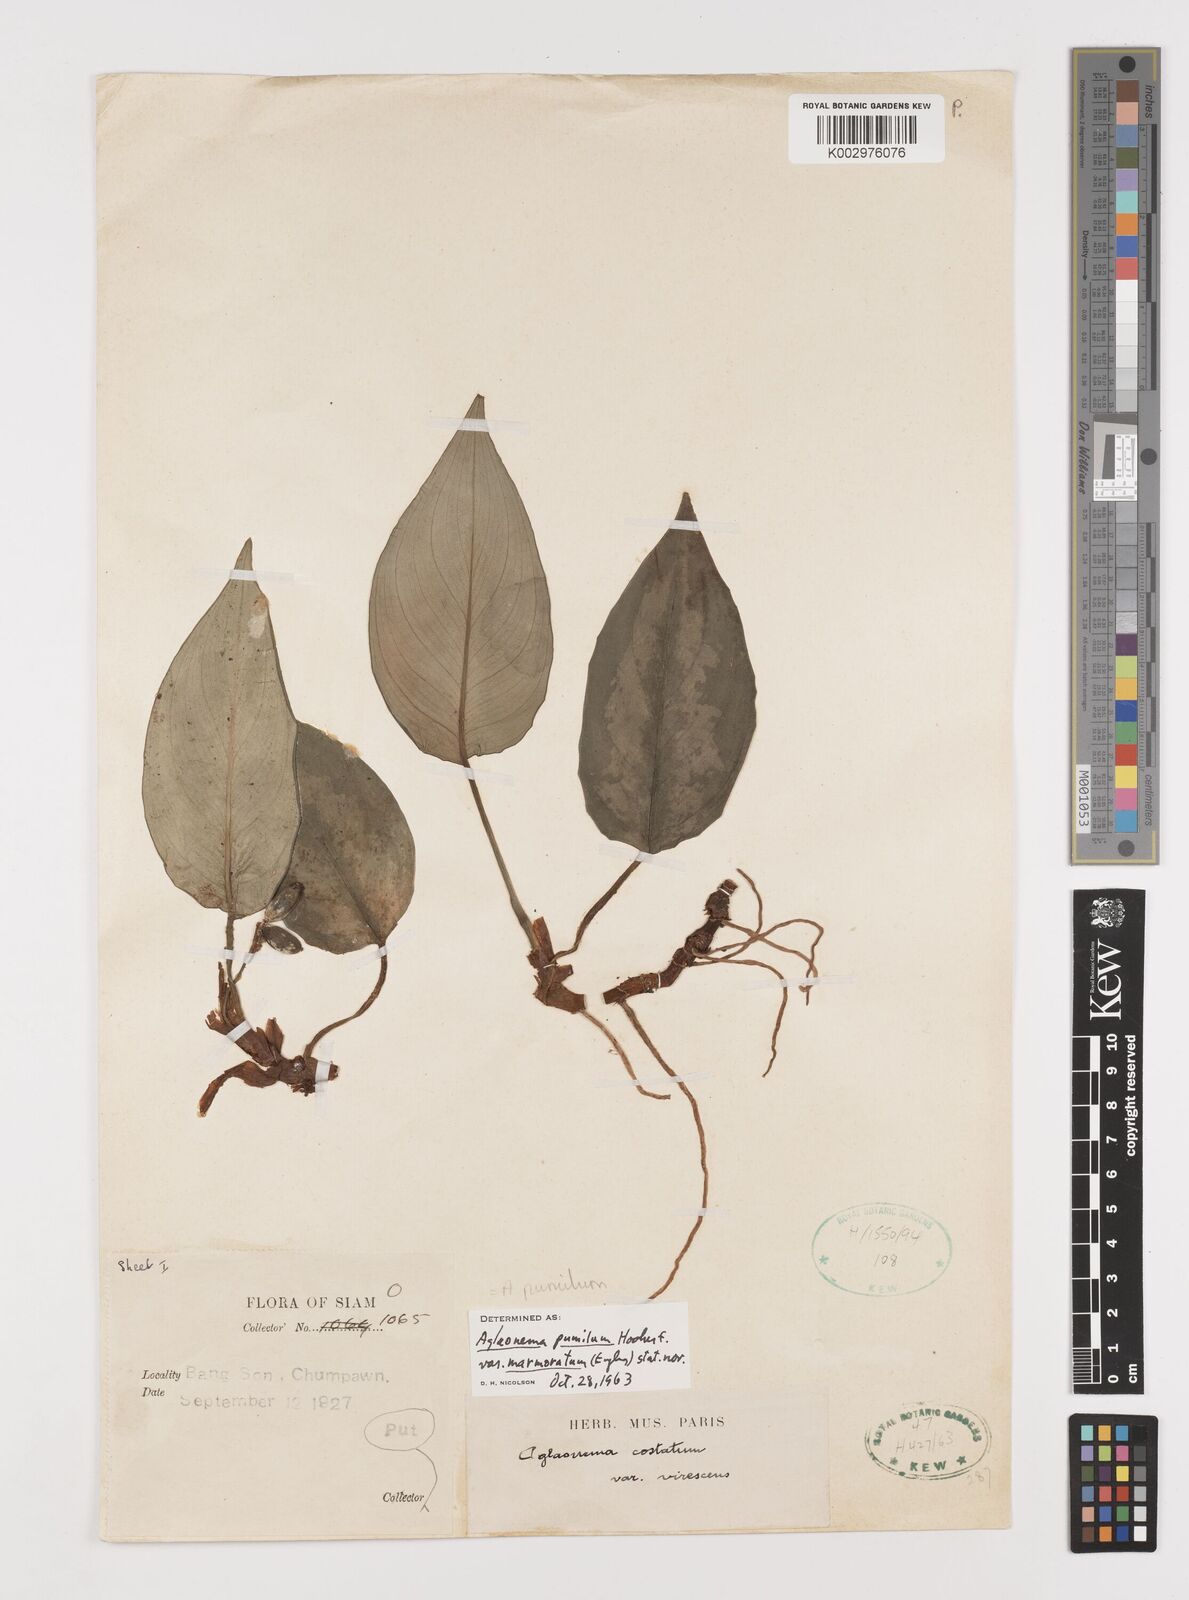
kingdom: Plantae
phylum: Tracheophyta
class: Liliopsida
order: Alismatales
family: Araceae
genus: Aglaonema
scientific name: Aglaonema pumilum
